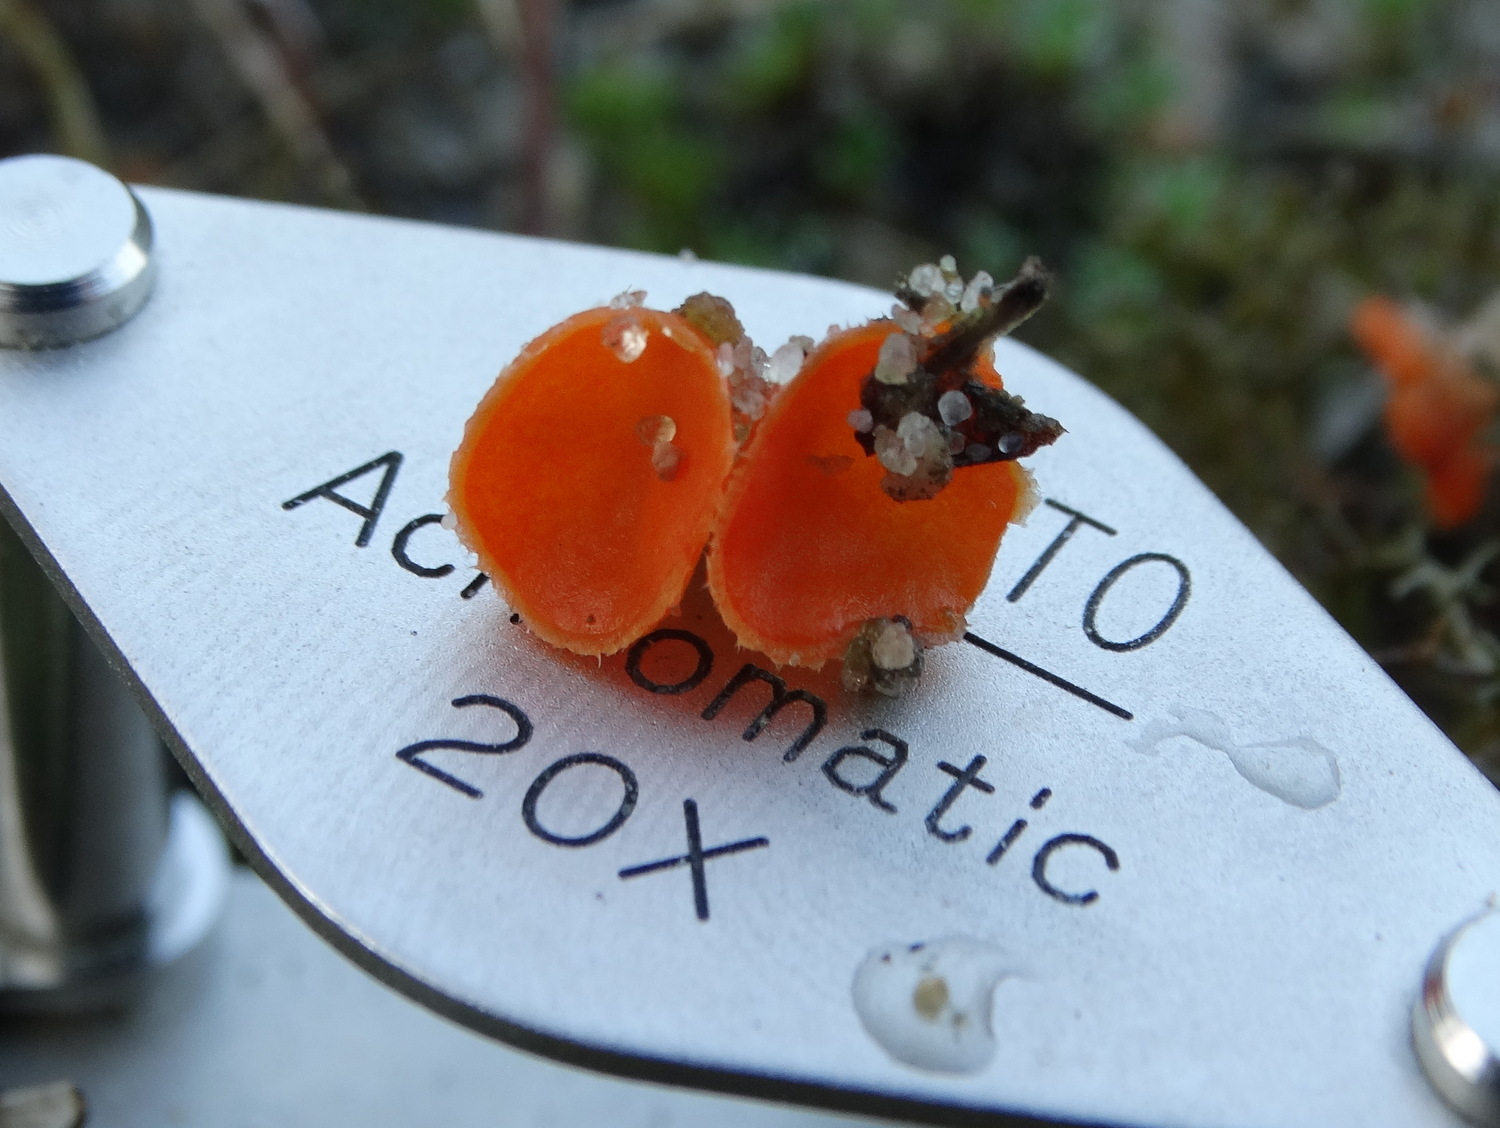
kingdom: Fungi
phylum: Ascomycota
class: Pezizomycetes
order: Pezizales
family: Pyronemataceae
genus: Neottiella
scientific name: Neottiella
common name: mosbæger
